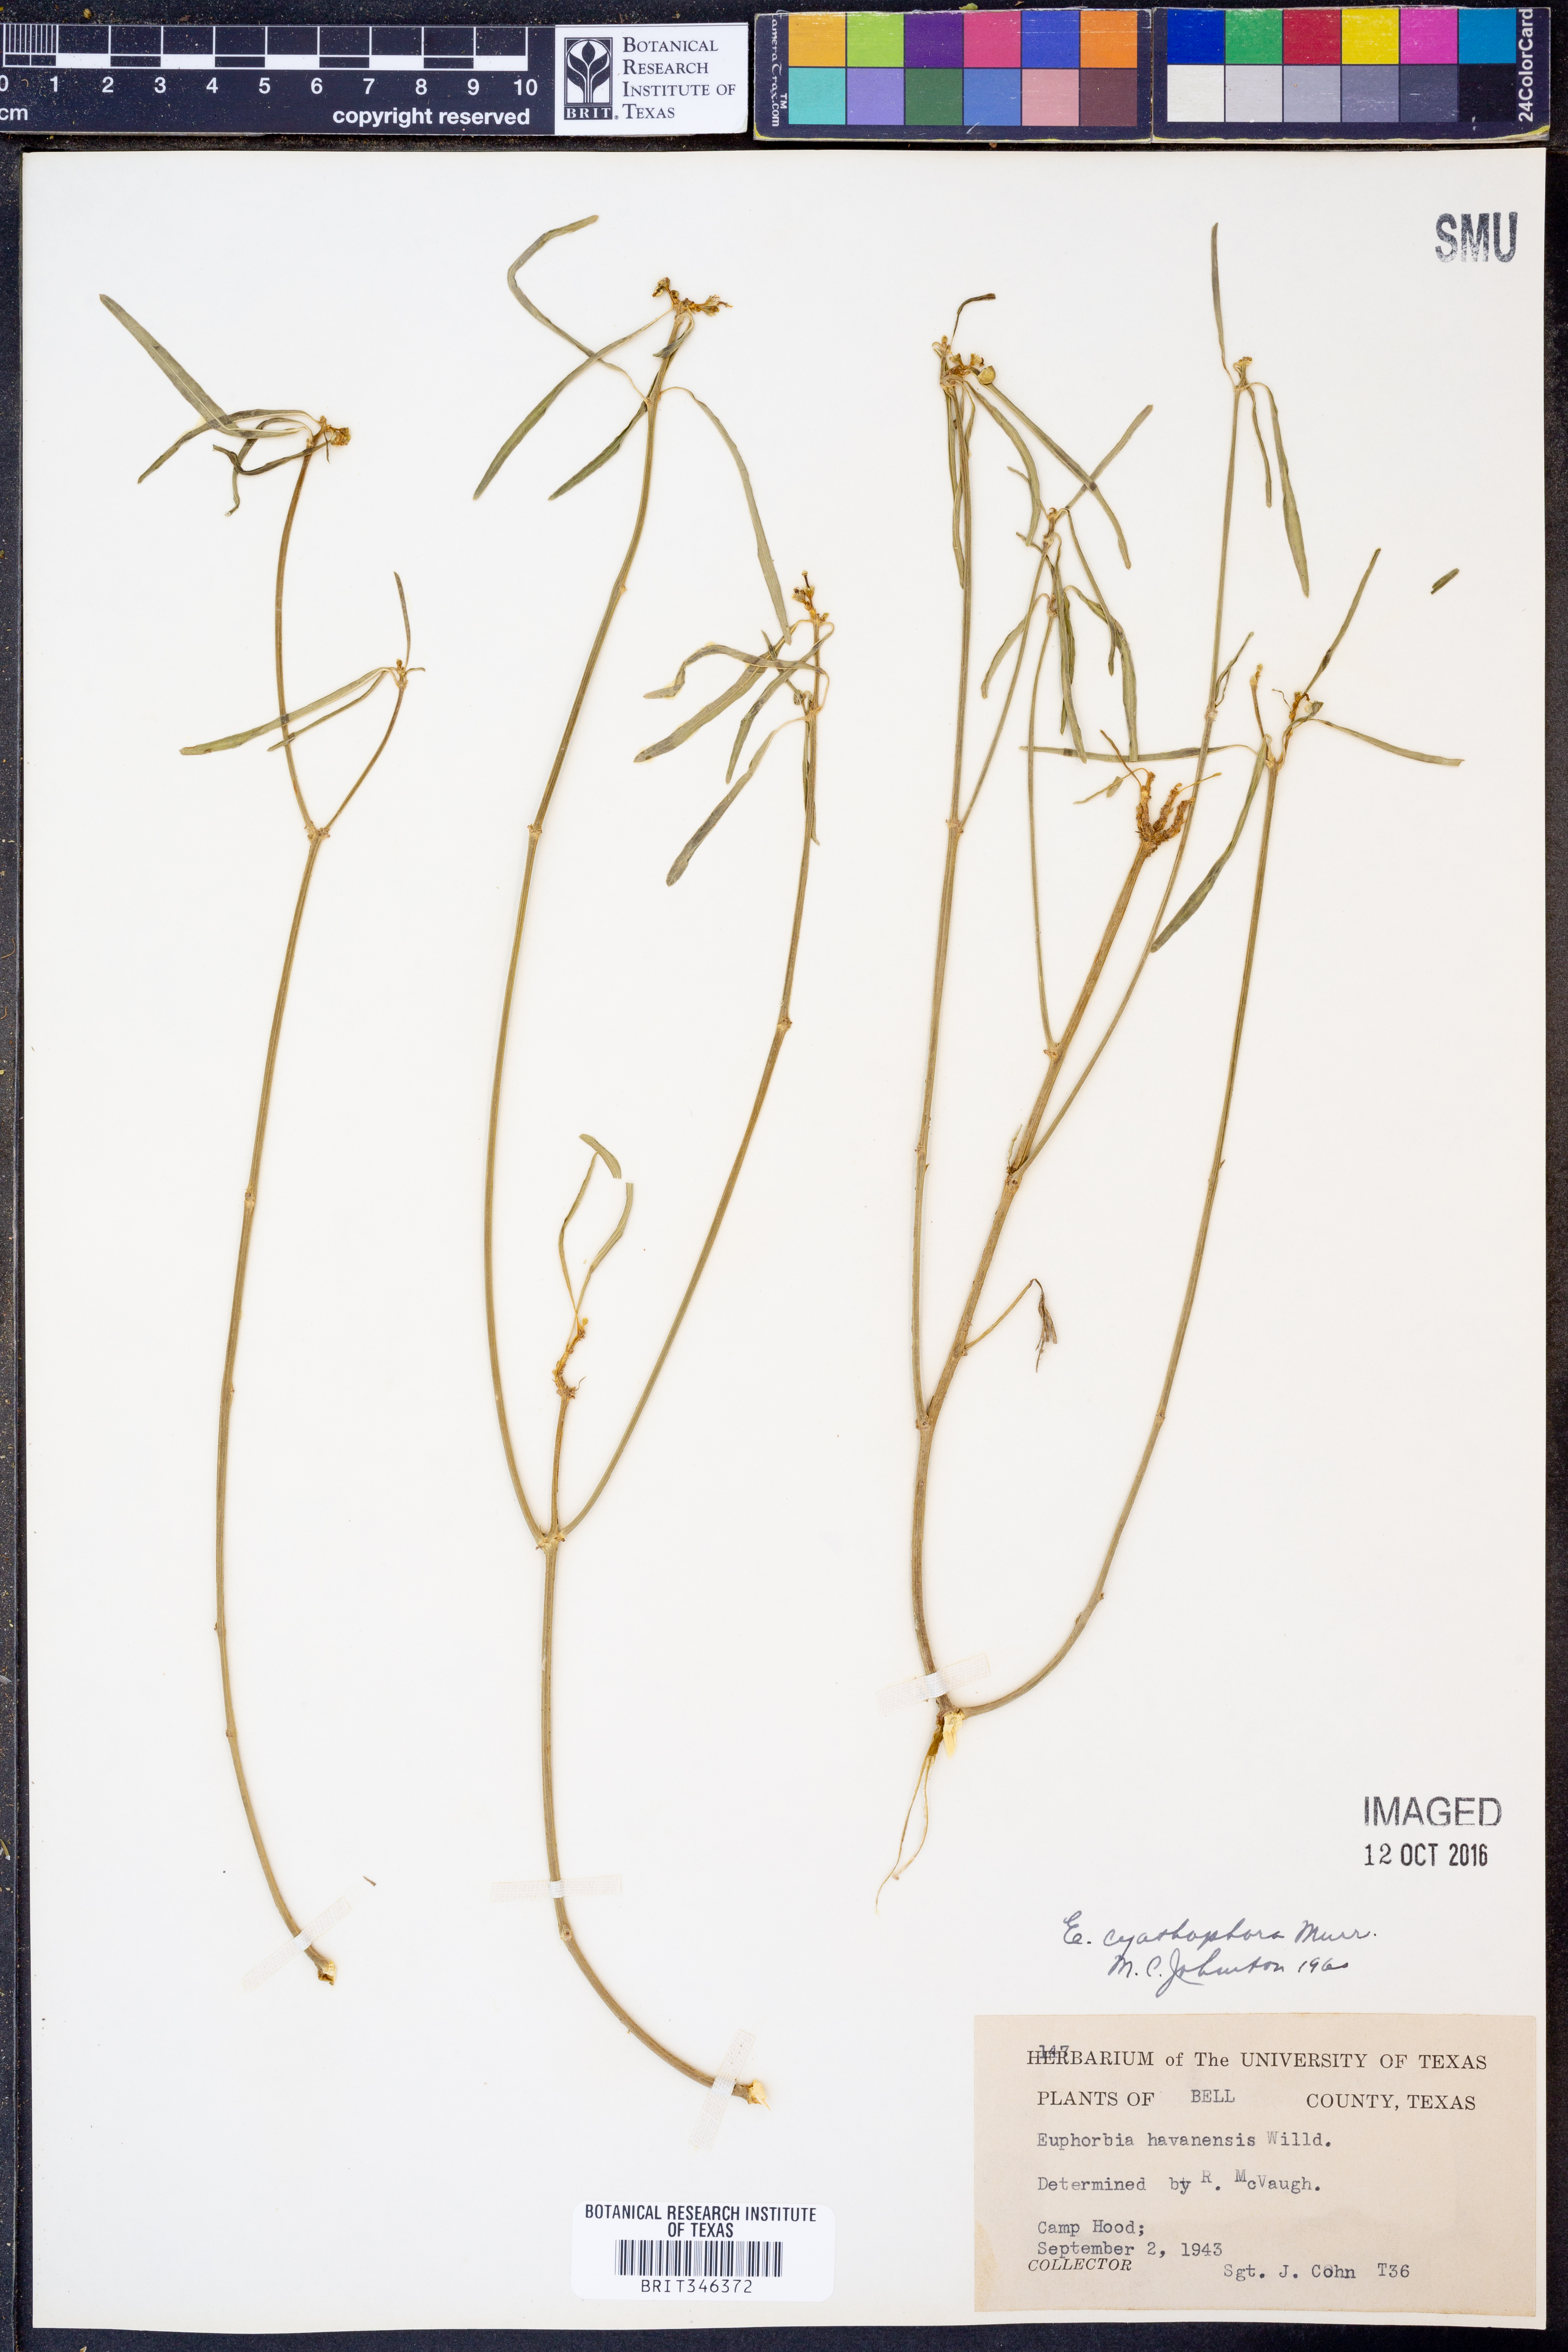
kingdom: Plantae
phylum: Tracheophyta
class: Magnoliopsida
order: Malpighiales
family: Euphorbiaceae
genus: Euphorbia
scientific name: Euphorbia heterophylla
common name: Mexican fireplant
